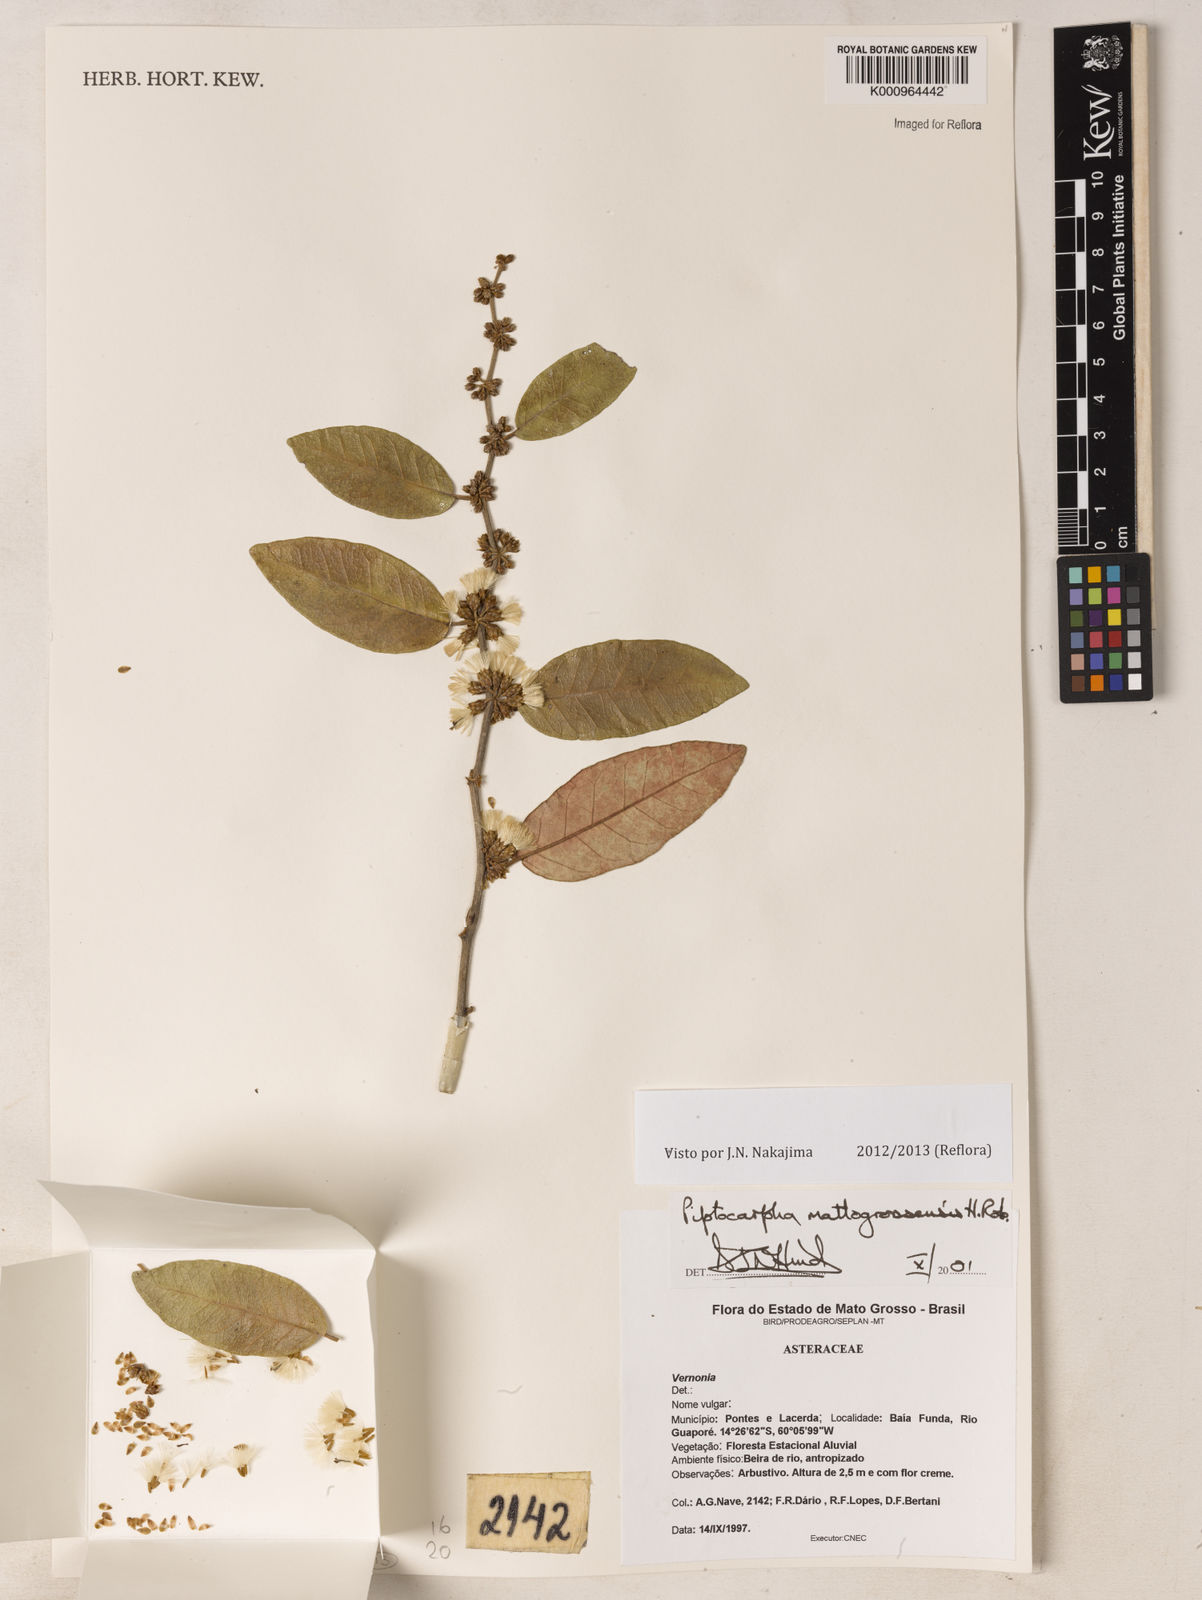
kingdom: Plantae
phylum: Tracheophyta
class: Magnoliopsida
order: Asterales
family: Asteraceae
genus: Piptocarpha
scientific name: Piptocarpha matogrossensis
